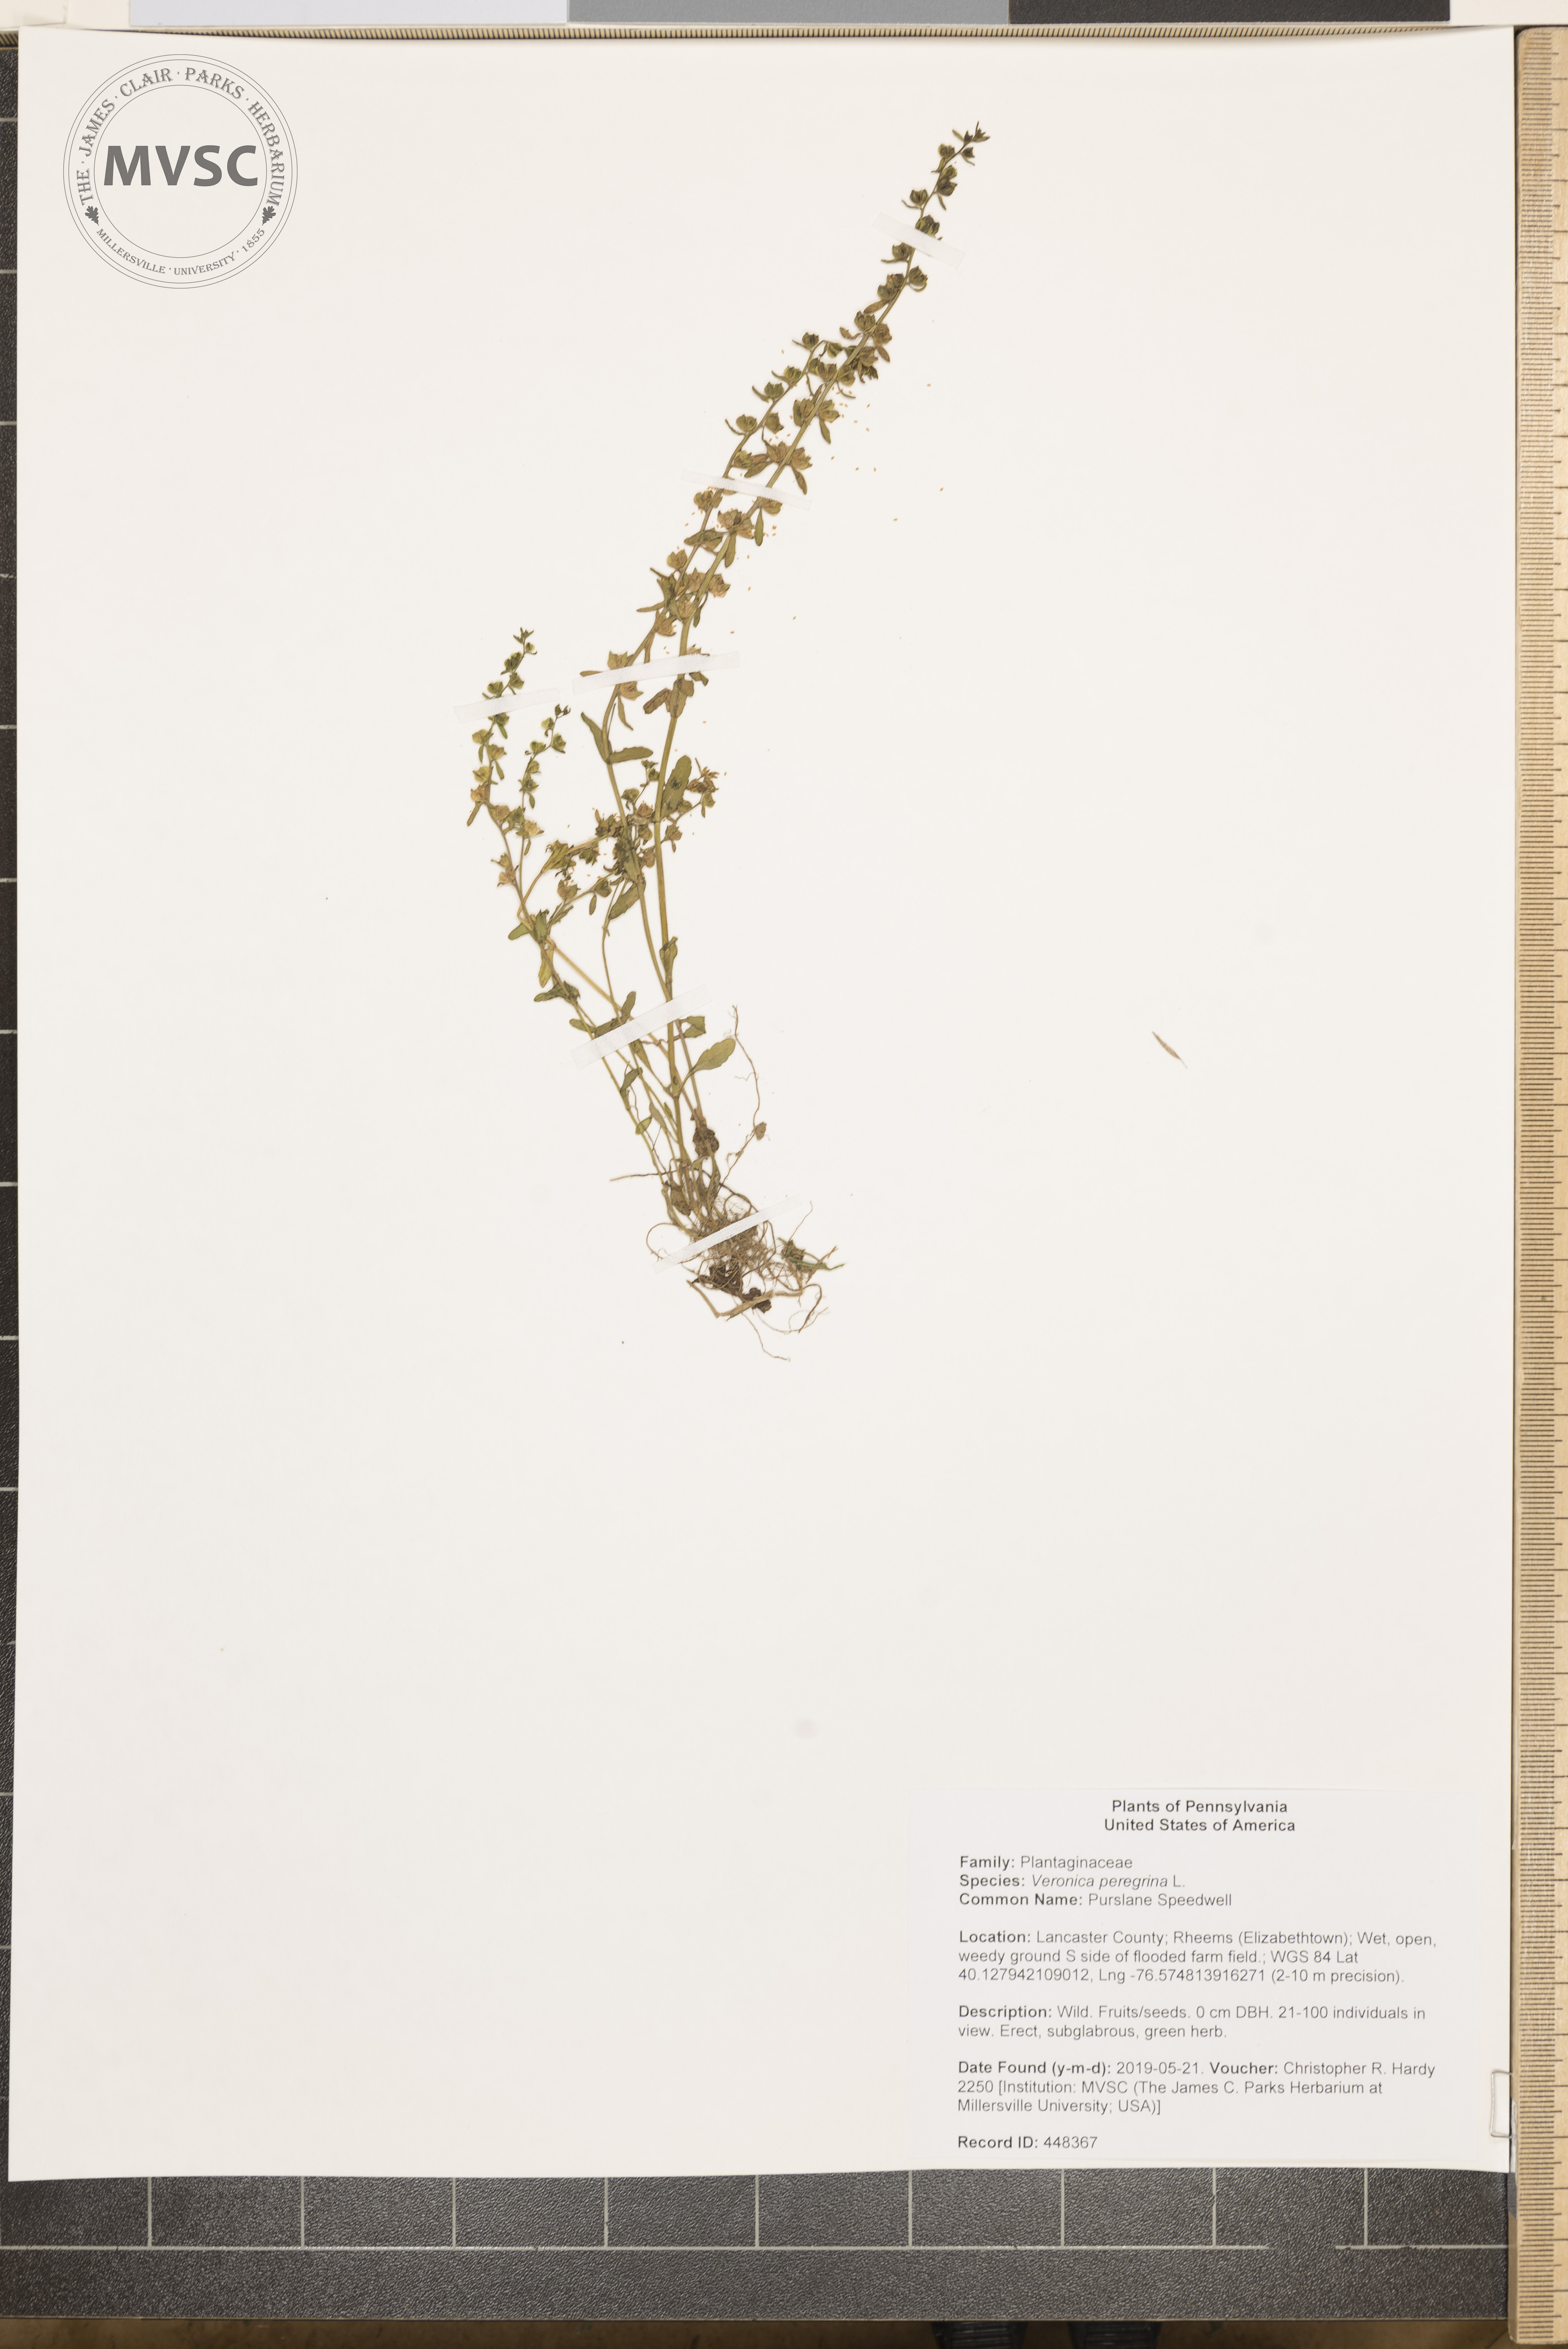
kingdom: Plantae
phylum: Tracheophyta
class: Magnoliopsida
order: Lamiales
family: Plantaginaceae
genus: Veronica
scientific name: Veronica peregrina
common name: Purslane Speedwell
